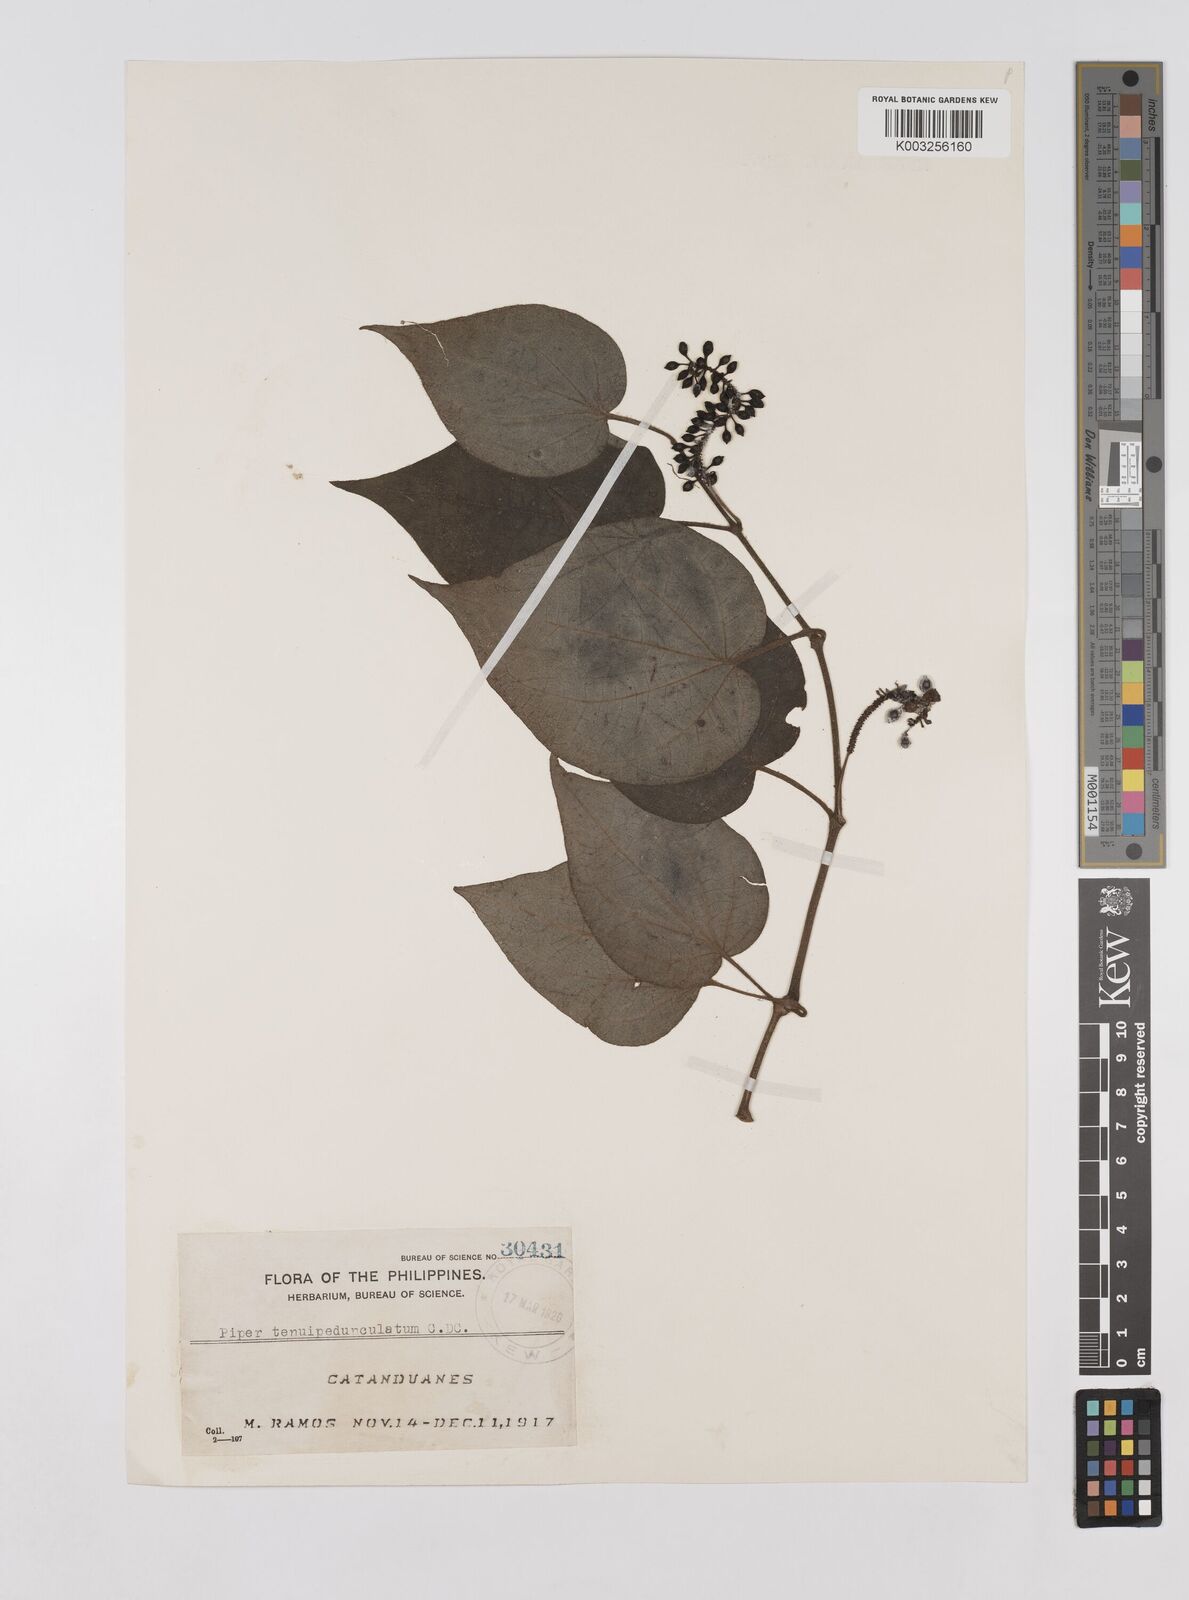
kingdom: Plantae
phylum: Tracheophyta
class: Magnoliopsida
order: Piperales
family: Piperaceae
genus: Piper
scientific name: Piper lanatum
